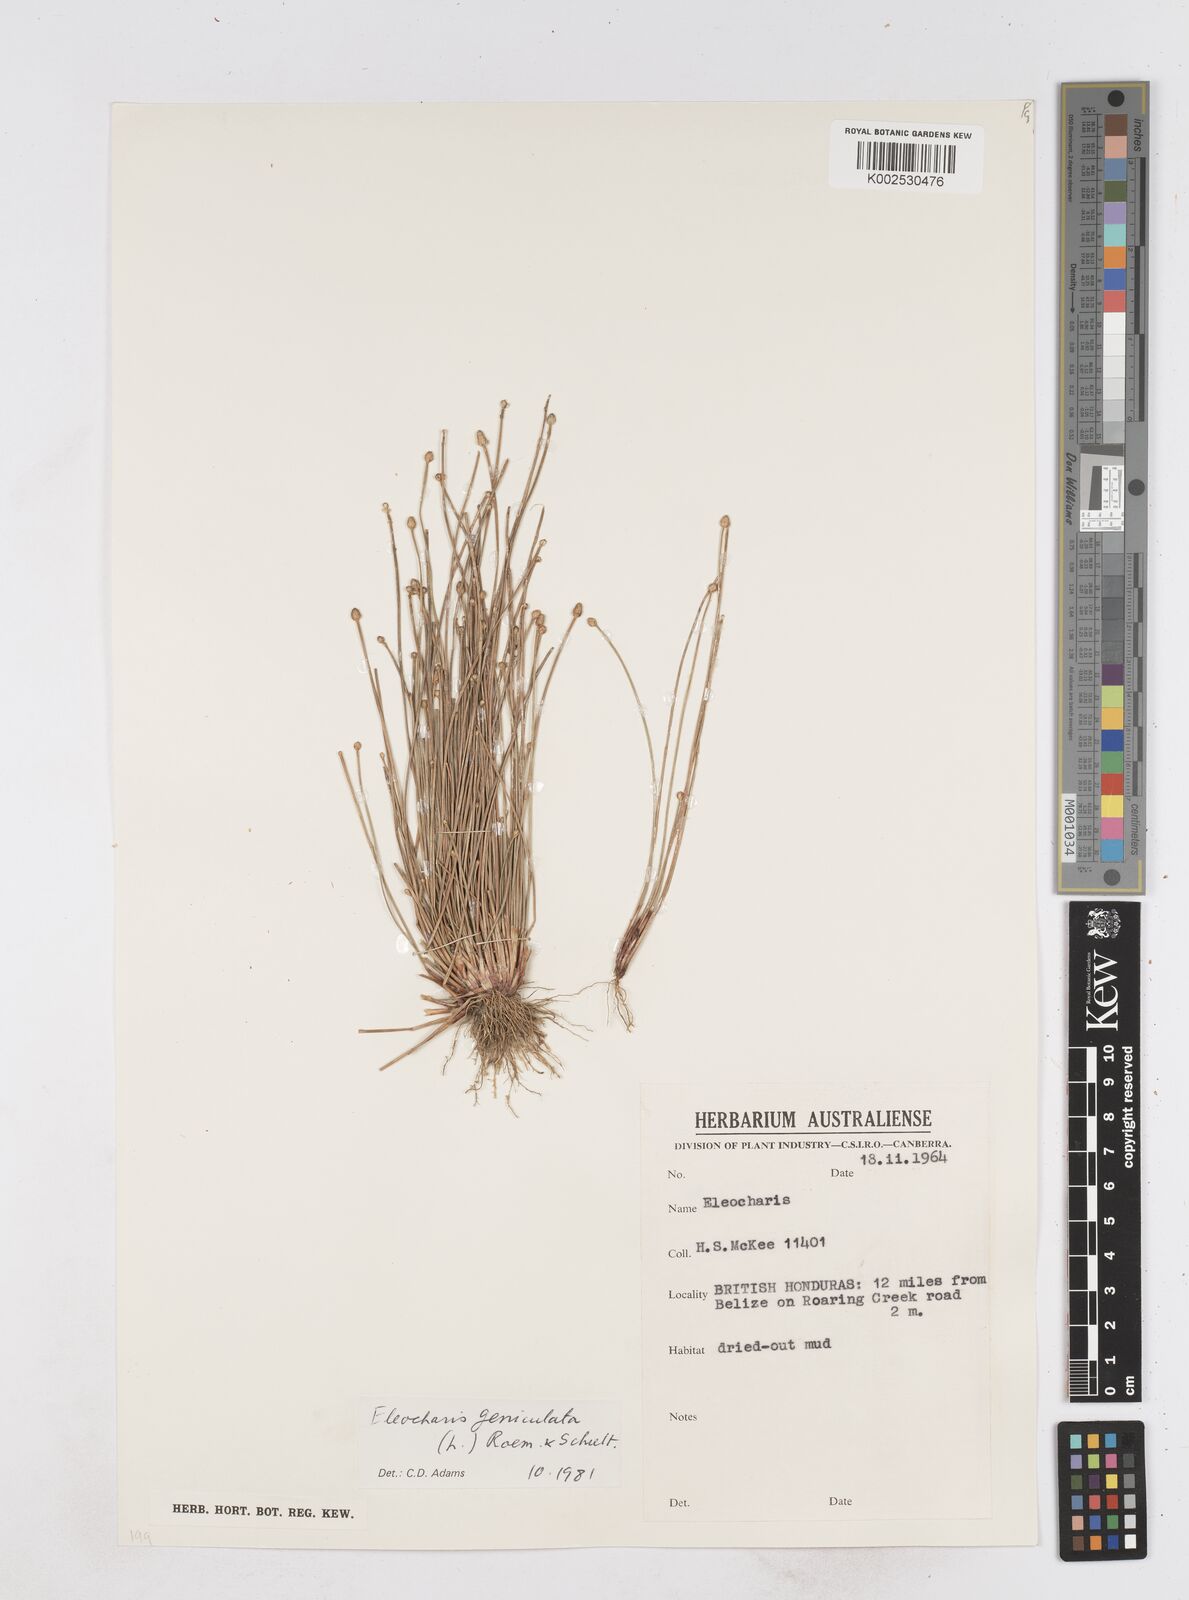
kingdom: Plantae
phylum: Tracheophyta
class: Liliopsida
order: Poales
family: Cyperaceae
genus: Eleocharis
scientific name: Eleocharis geniculata
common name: Canada spikesedge
